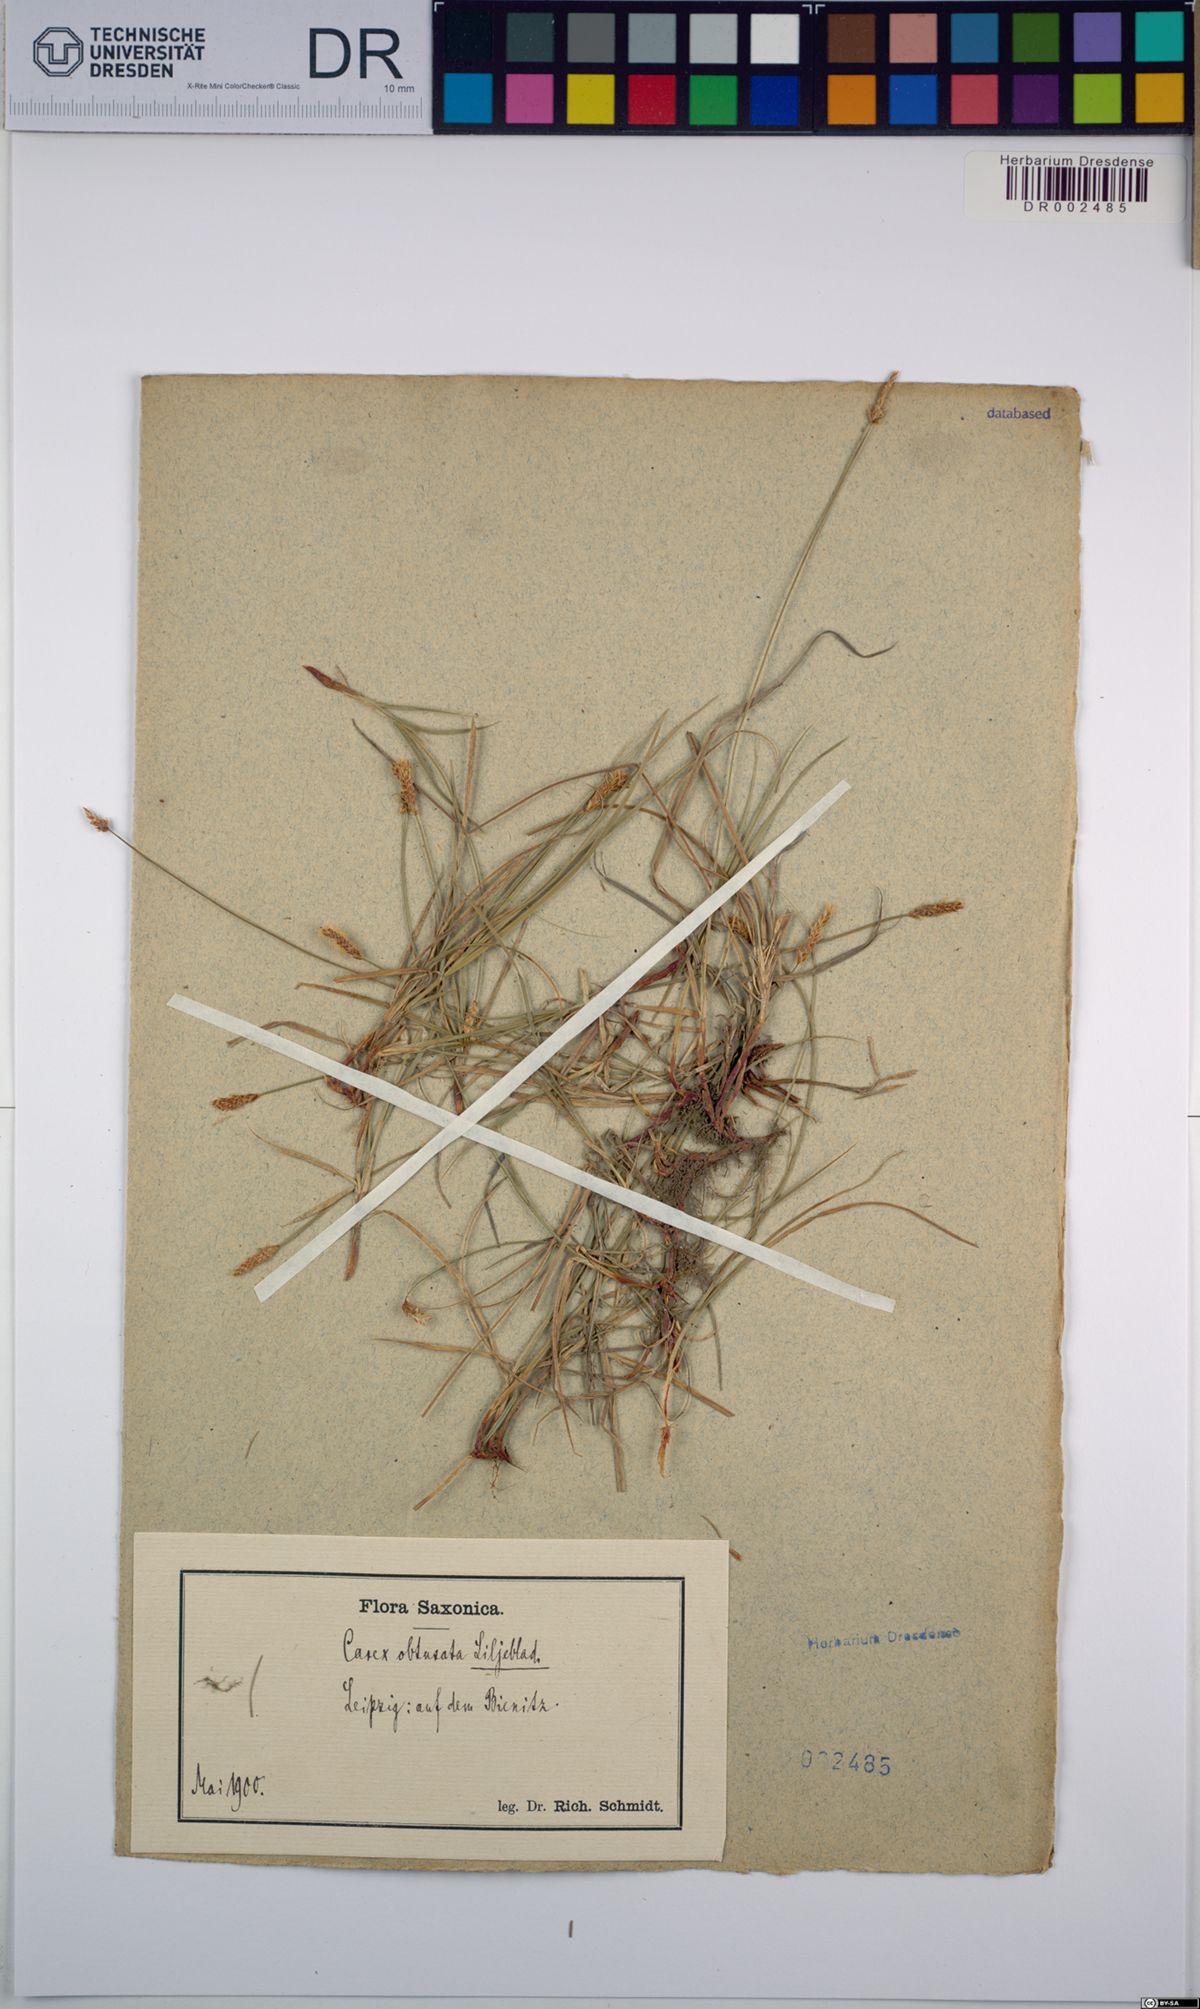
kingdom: Plantae
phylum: Tracheophyta
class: Liliopsida
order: Poales
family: Cyperaceae
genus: Carex
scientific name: Carex obtusata
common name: Blunt sedge
